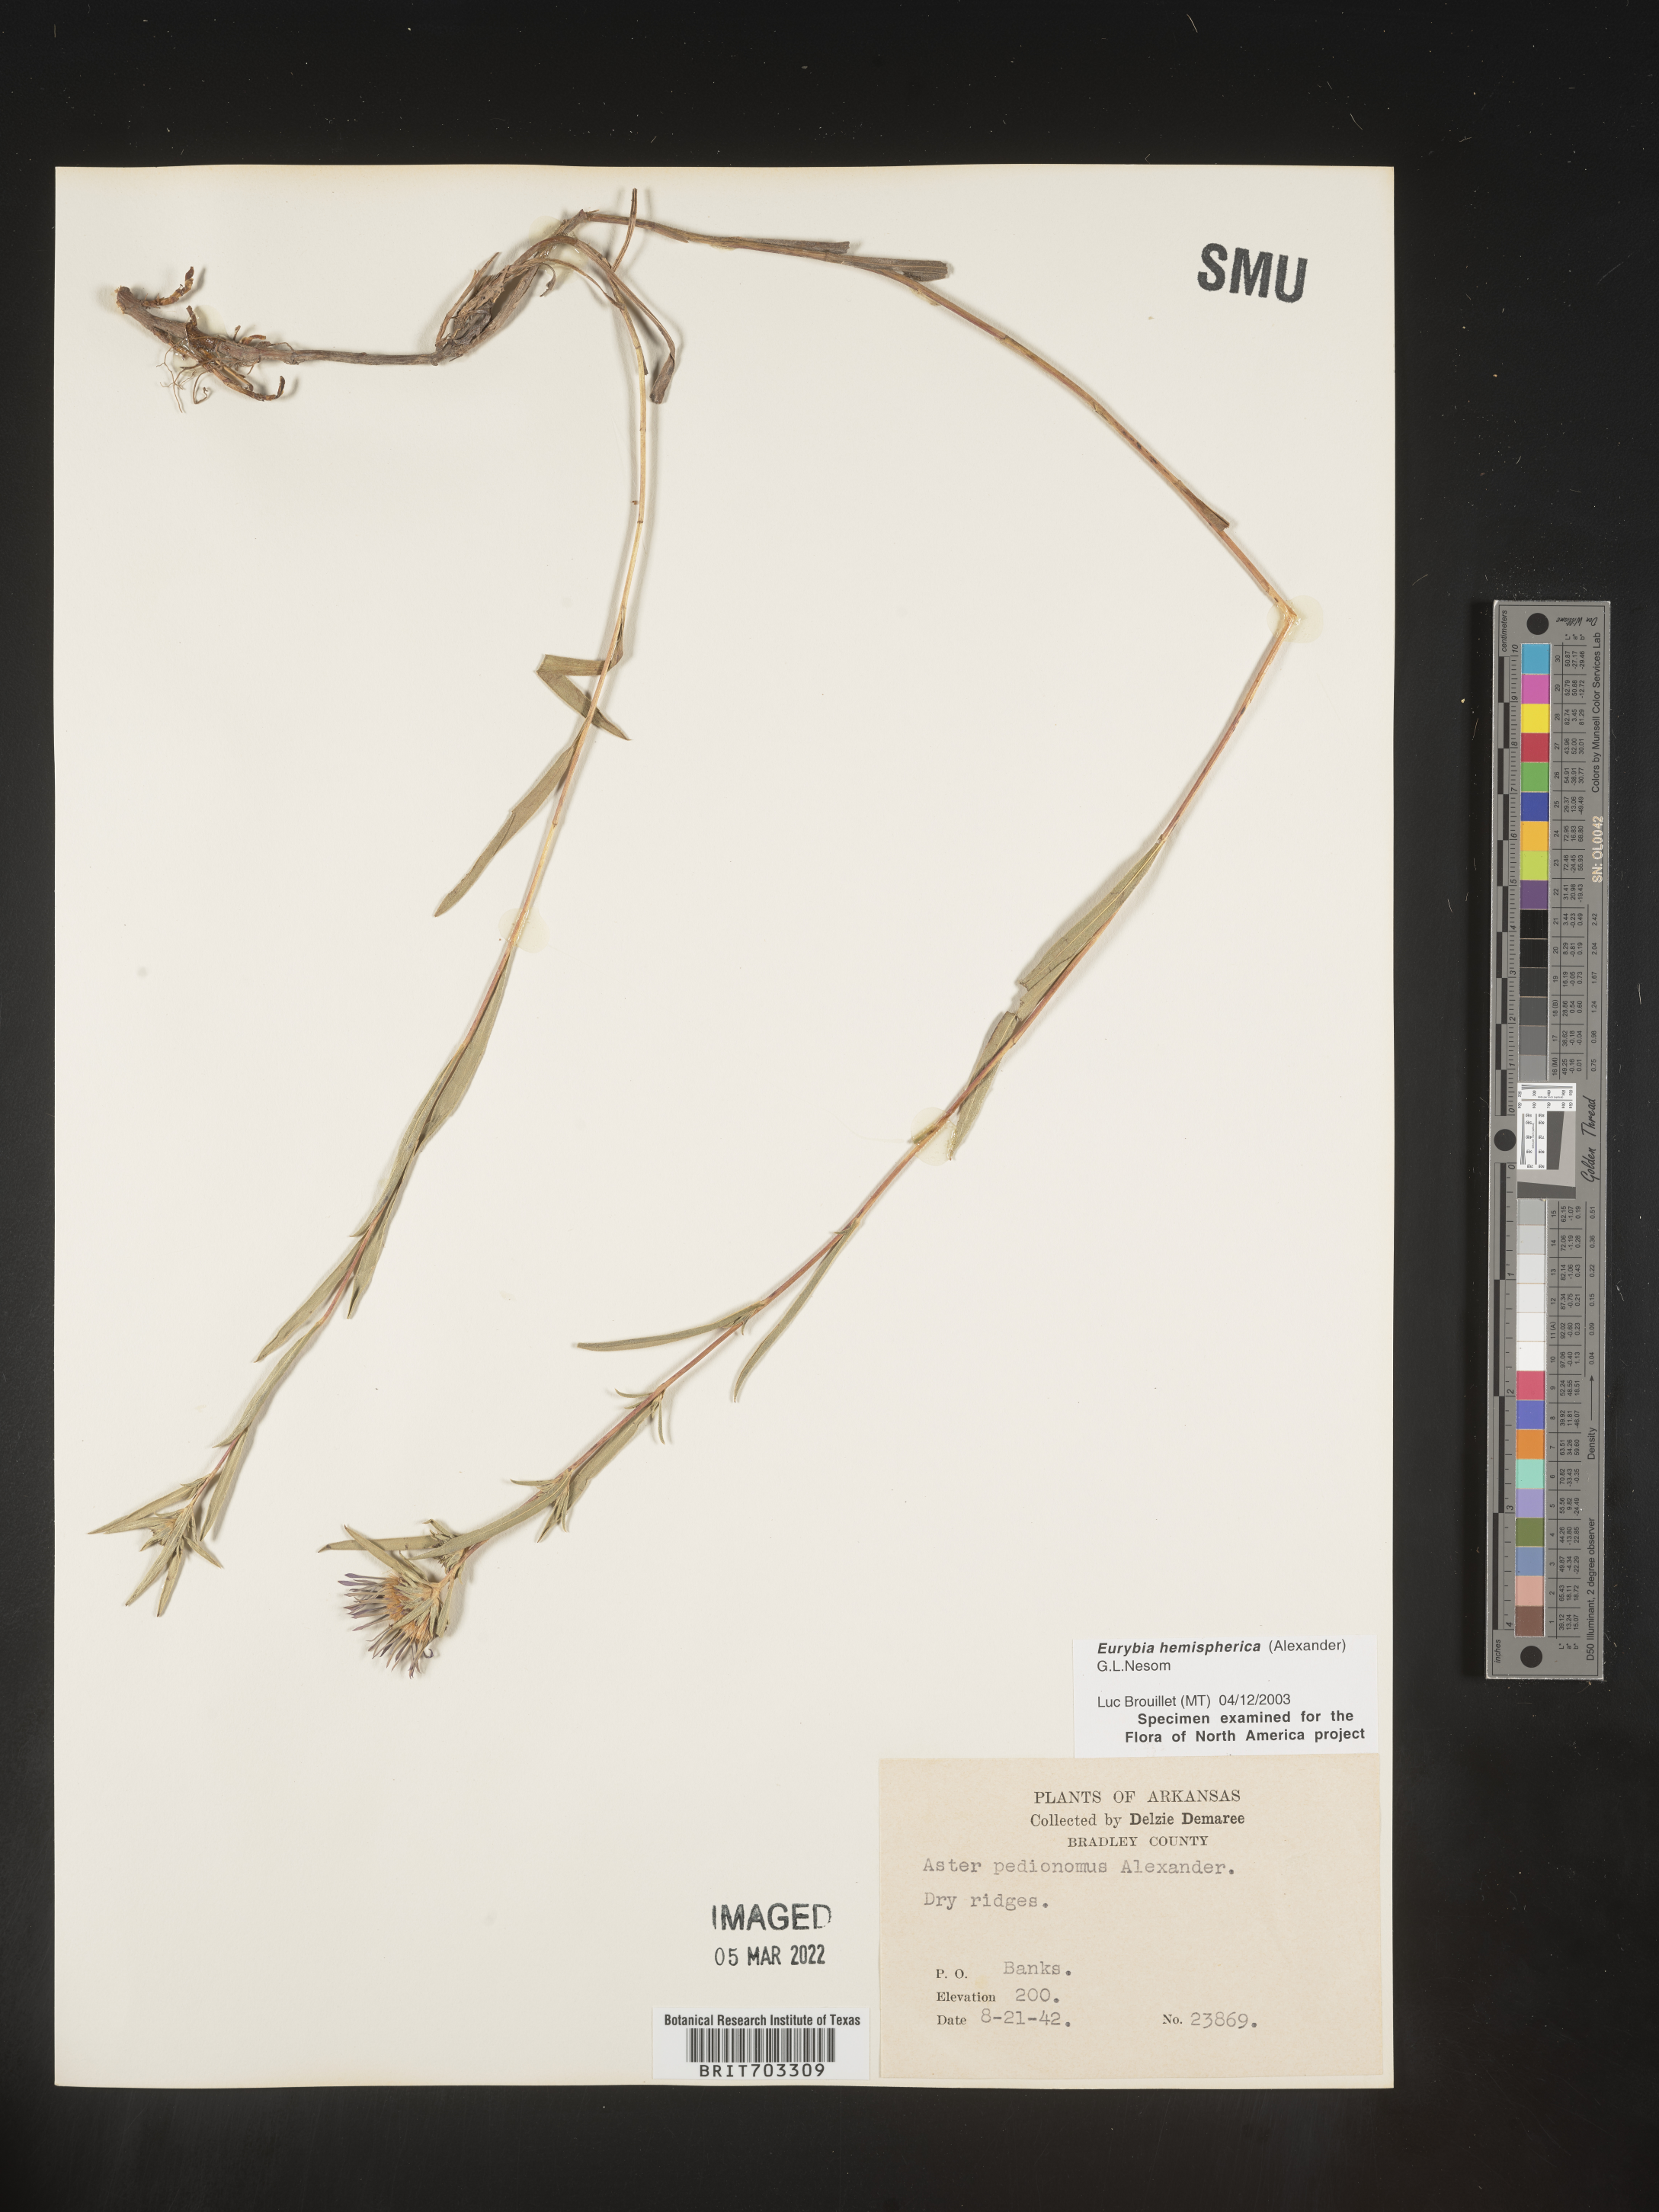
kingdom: Plantae
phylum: Tracheophyta
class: Magnoliopsida
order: Asterales
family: Asteraceae
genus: Eurybia
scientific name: Eurybia hemispherica
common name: Showy aster
